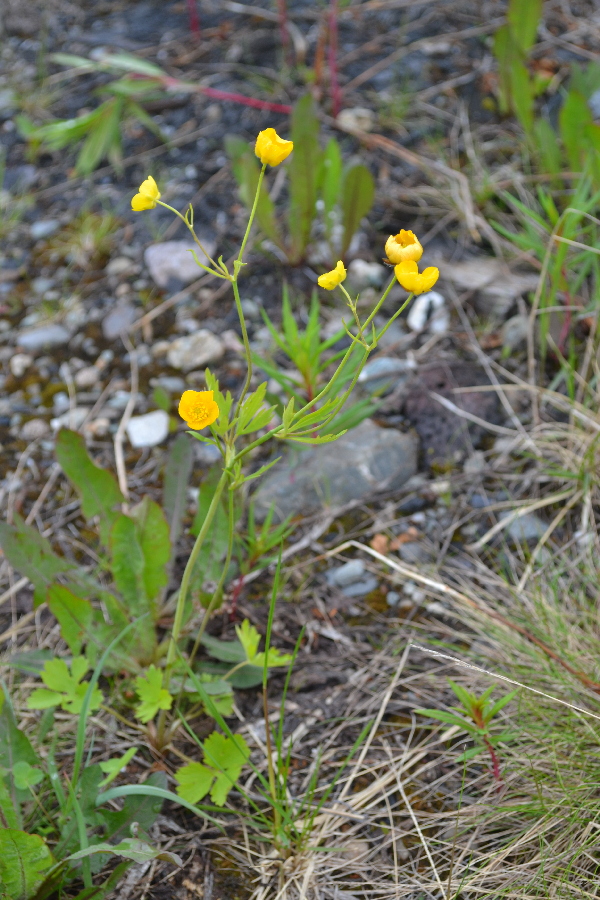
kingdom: Plantae
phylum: Tracheophyta
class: Magnoliopsida
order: Ranunculales
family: Ranunculaceae
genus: Ranunculus
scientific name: Ranunculus acris
